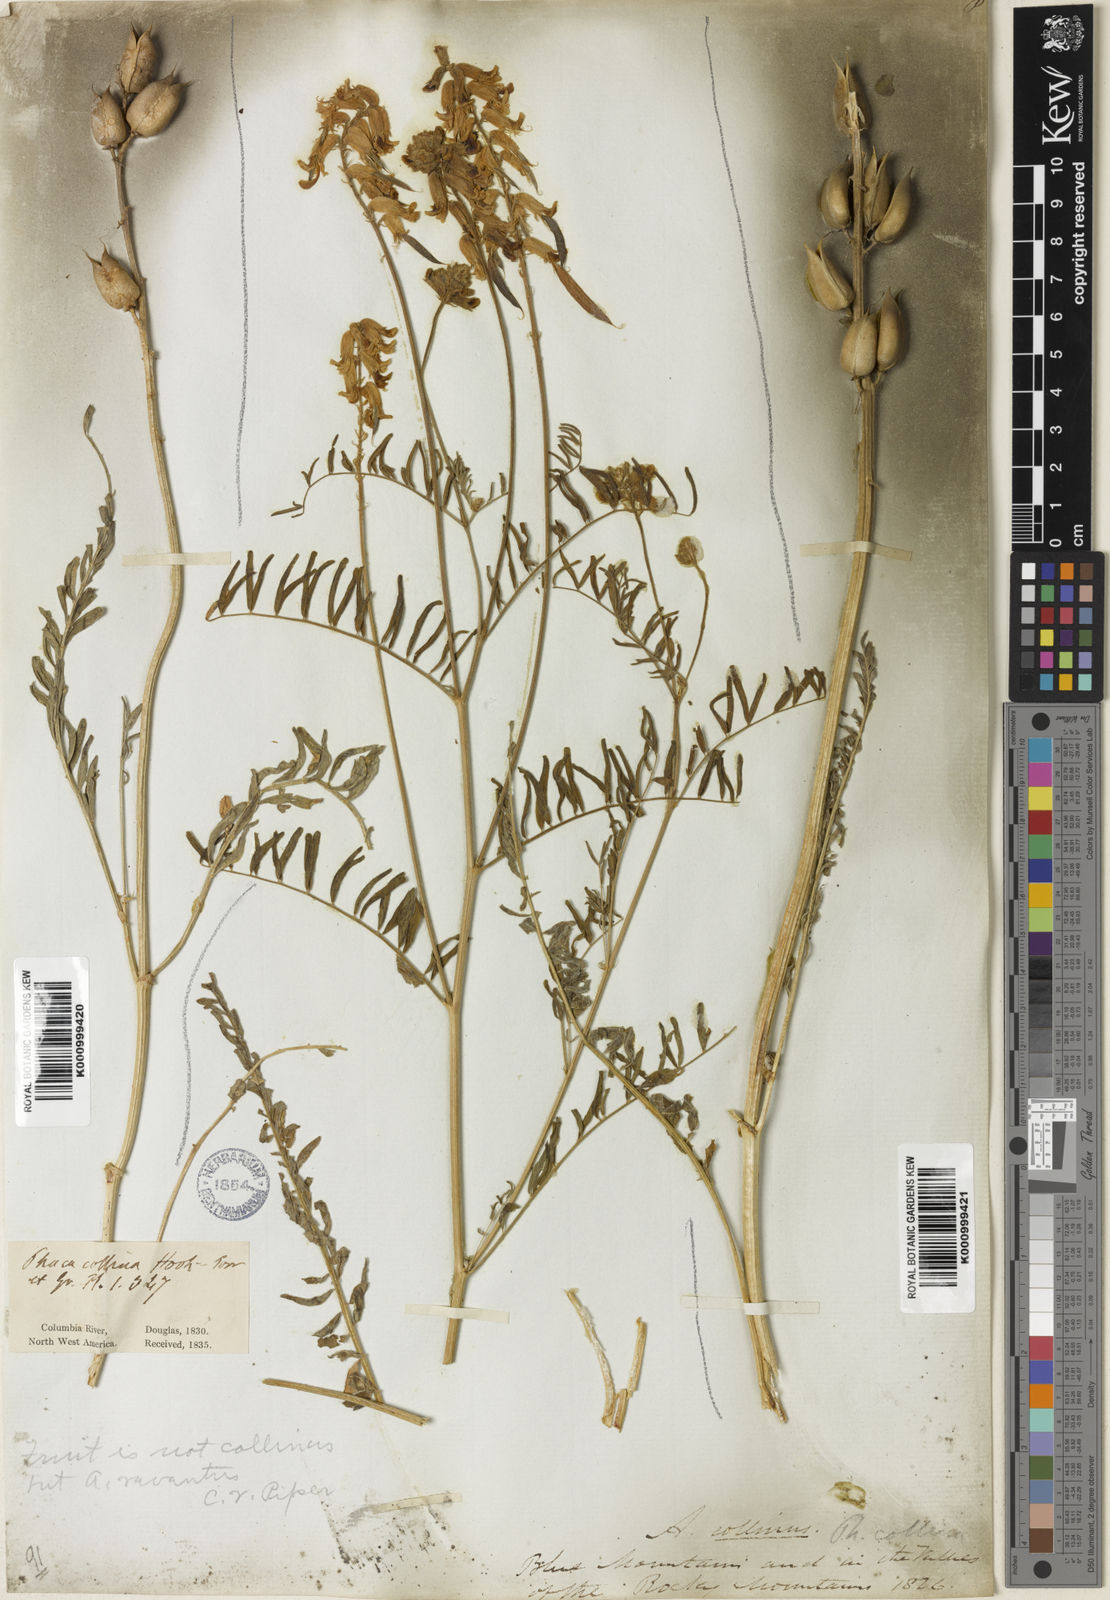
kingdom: Plantae
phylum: Tracheophyta
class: Magnoliopsida
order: Fabales
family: Fabaceae
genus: Astragalus
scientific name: Astragalus collinus
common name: Hill milk-vetch
